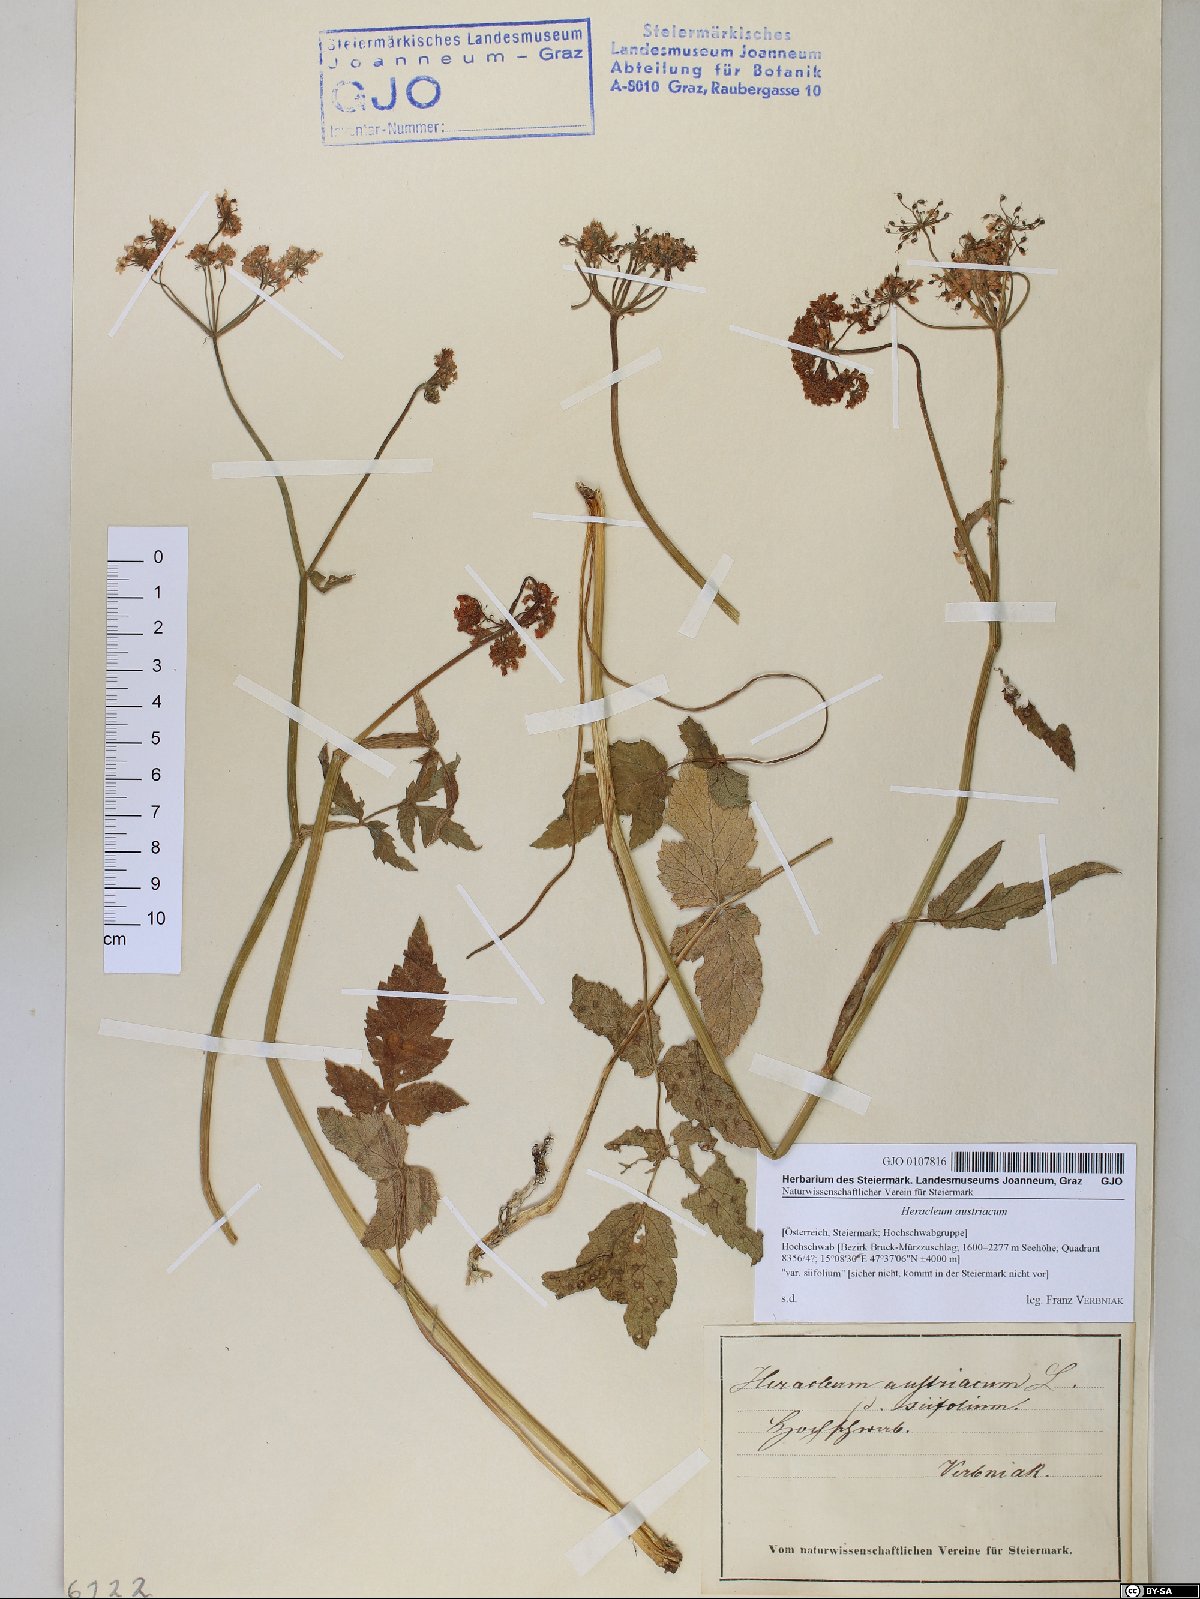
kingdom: Plantae
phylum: Tracheophyta
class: Magnoliopsida
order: Apiales
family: Apiaceae
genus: Heracleum
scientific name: Heracleum austriacum
